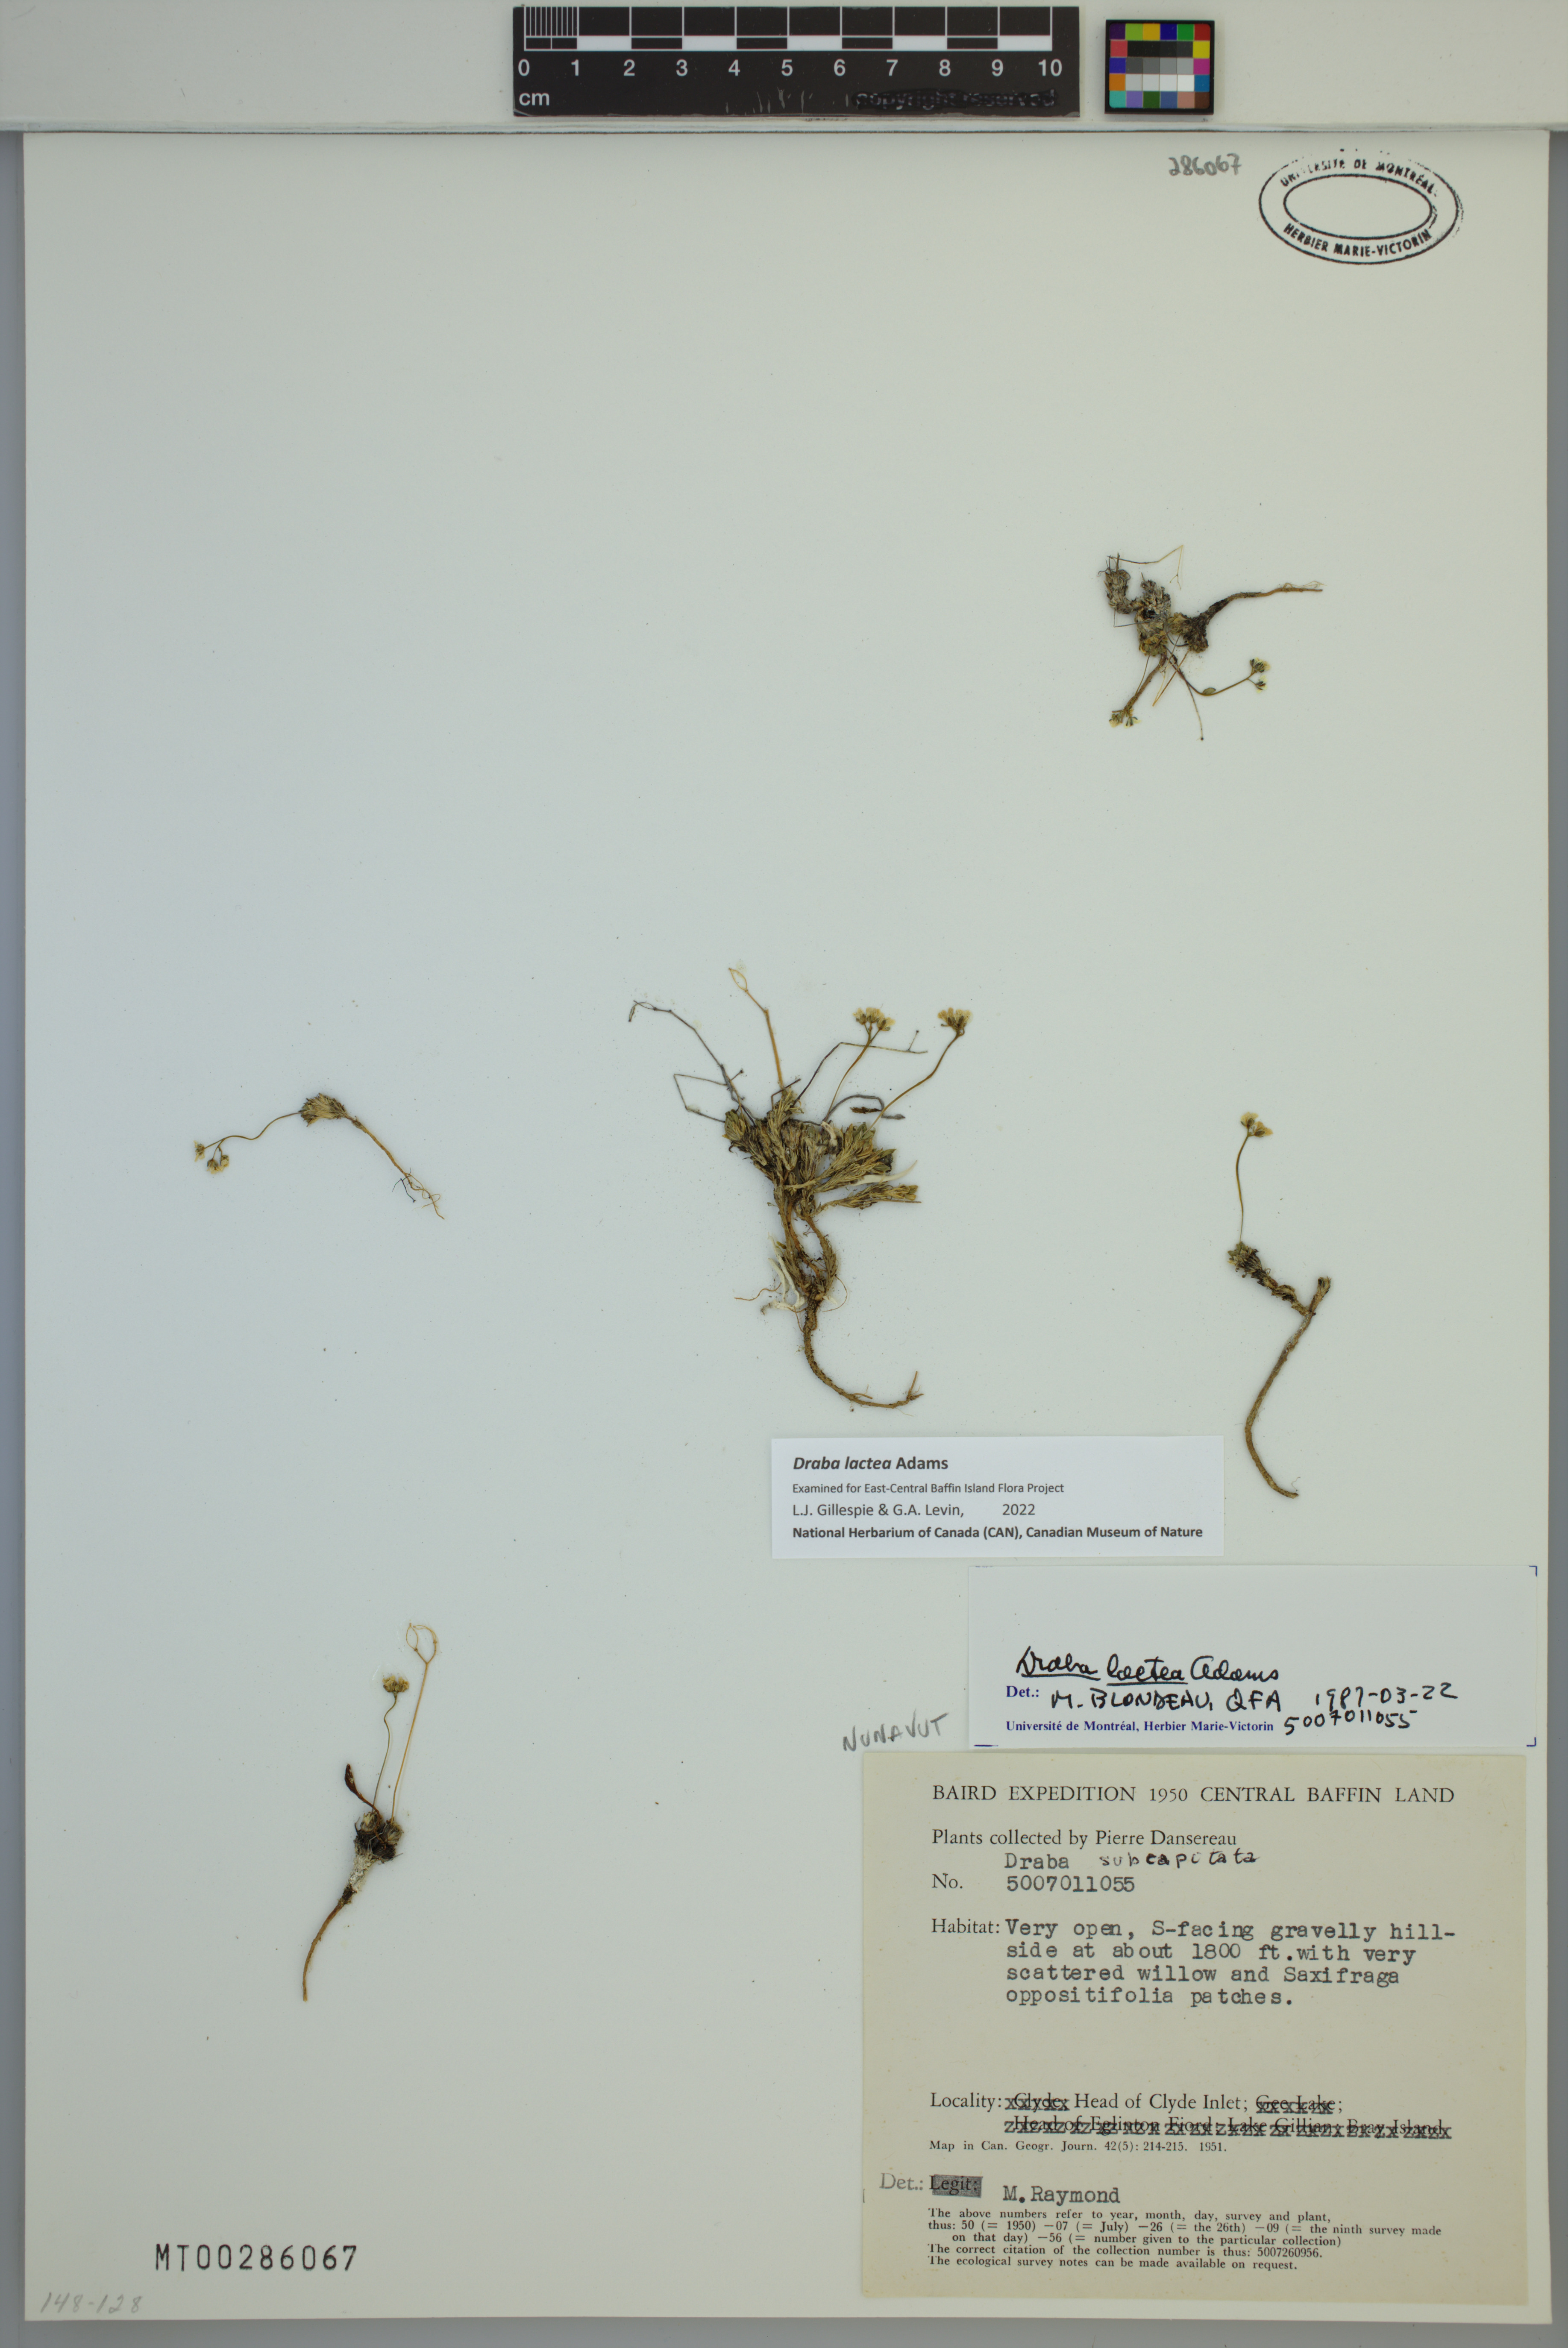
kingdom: Plantae
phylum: Tracheophyta
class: Magnoliopsida
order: Brassicales
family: Brassicaceae
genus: Draba
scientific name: Draba lactea
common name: Milky draba
